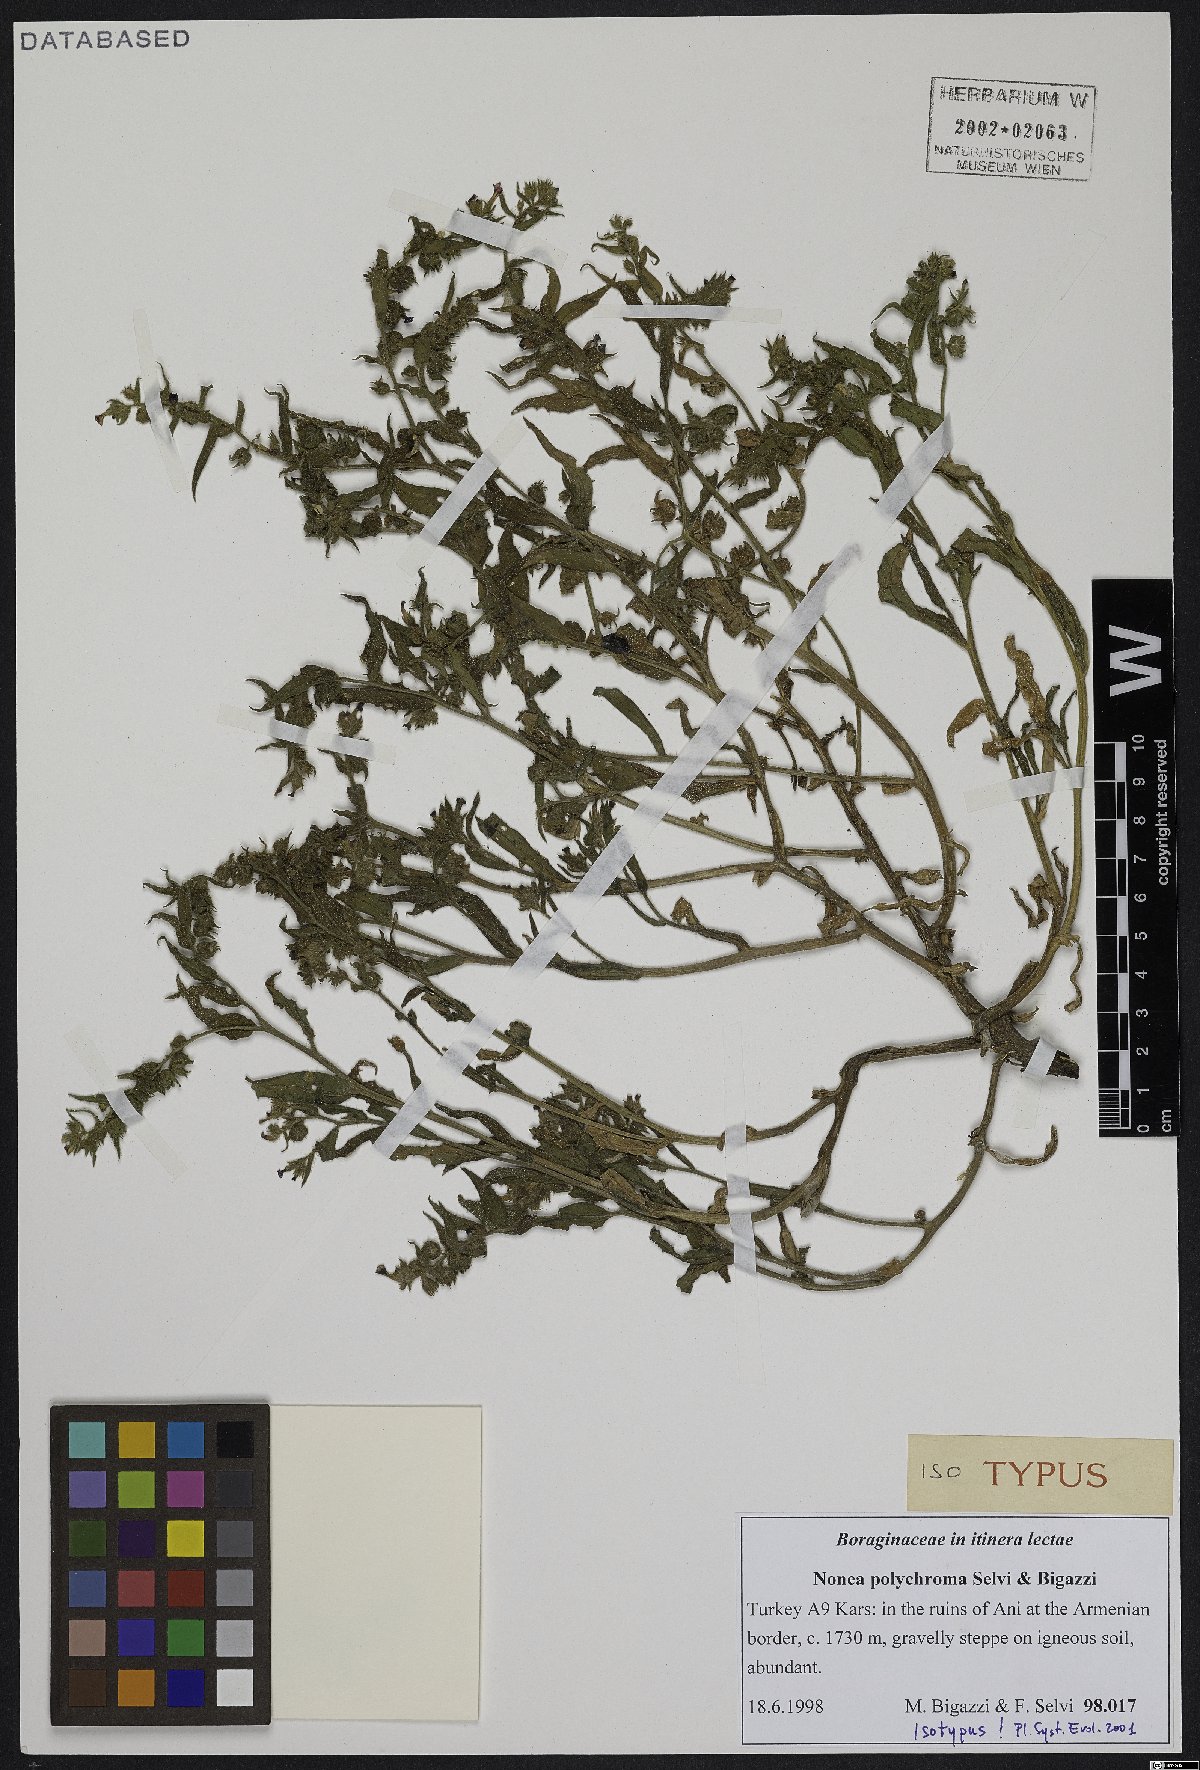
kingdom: Plantae
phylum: Tracheophyta
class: Magnoliopsida
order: Boraginales
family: Boraginaceae
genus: Nonea
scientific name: Nonea polychroma
